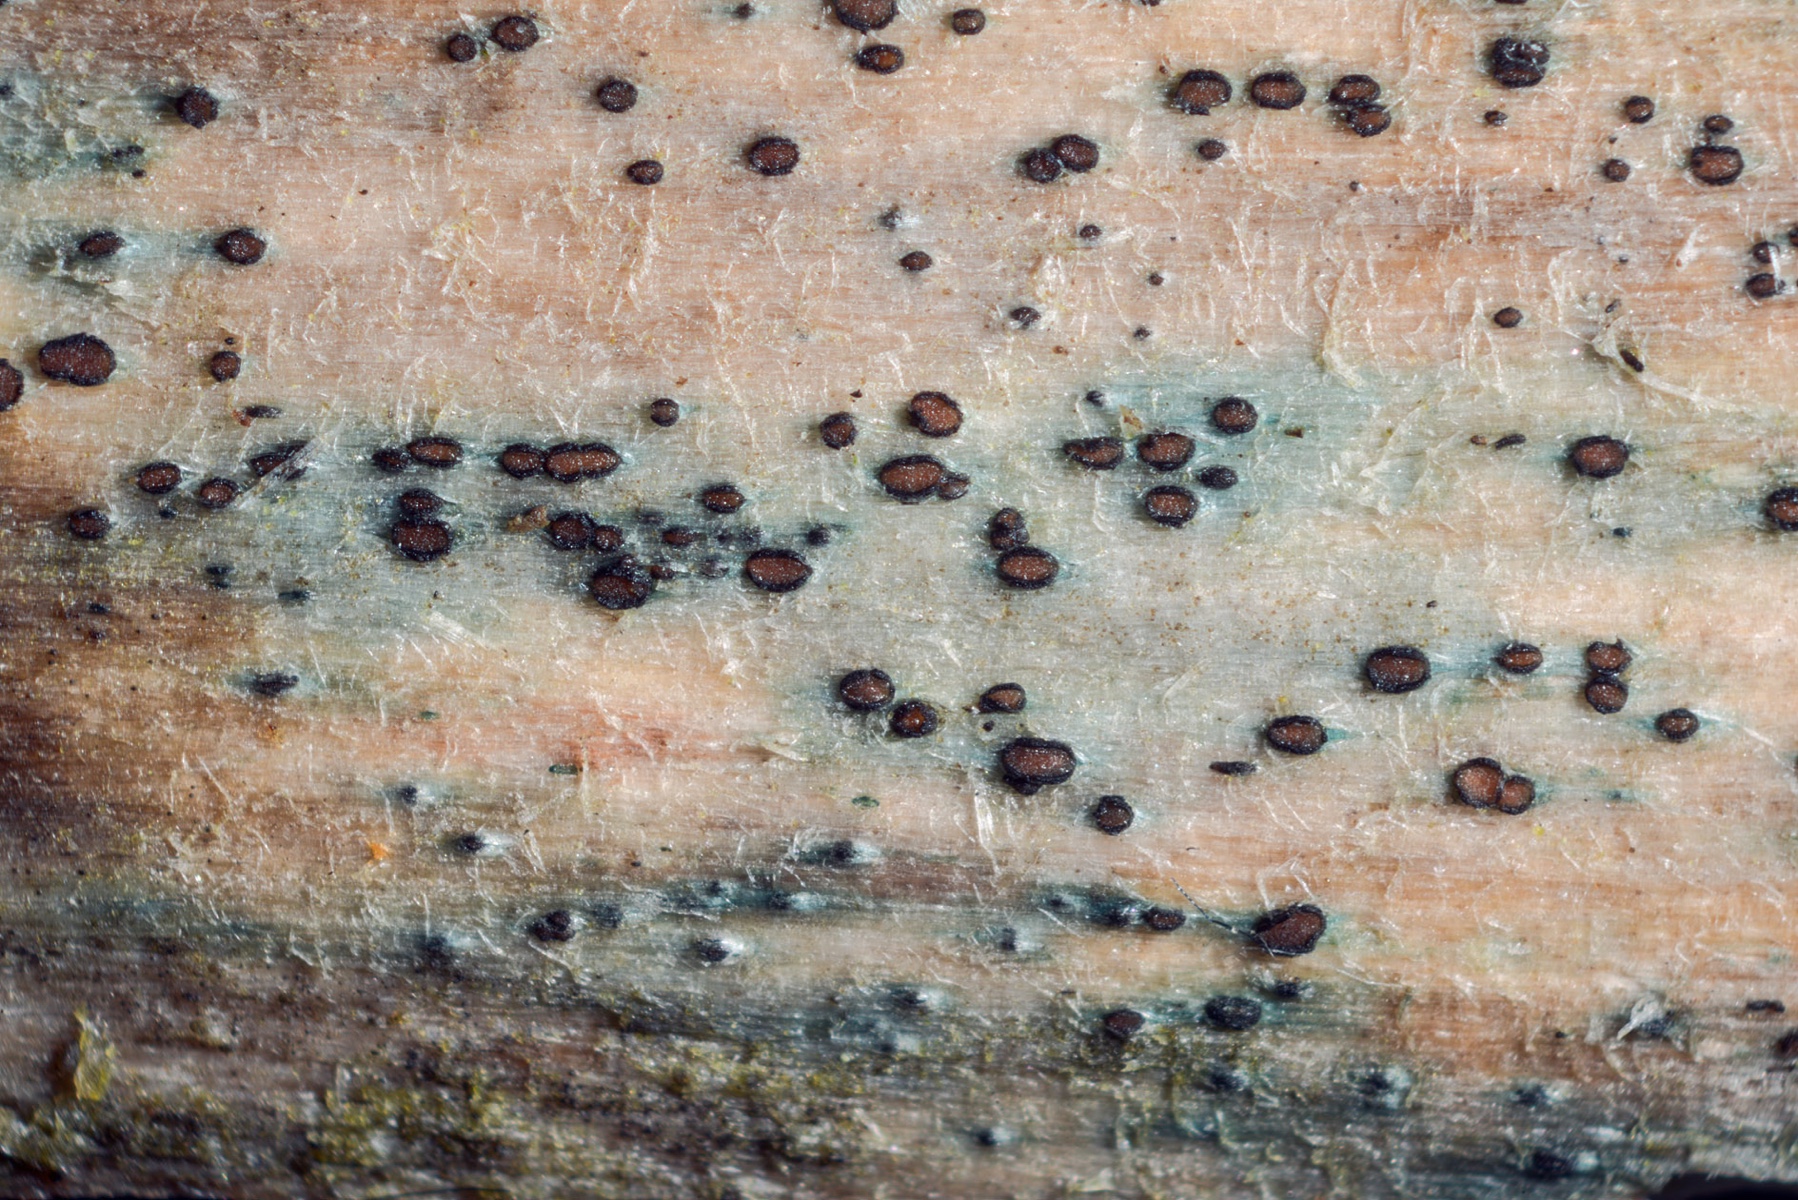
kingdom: Fungi
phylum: Ascomycota
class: Leotiomycetes
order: Helotiales
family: Helotiaceae
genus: Durella
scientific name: Durella atrocyanea
